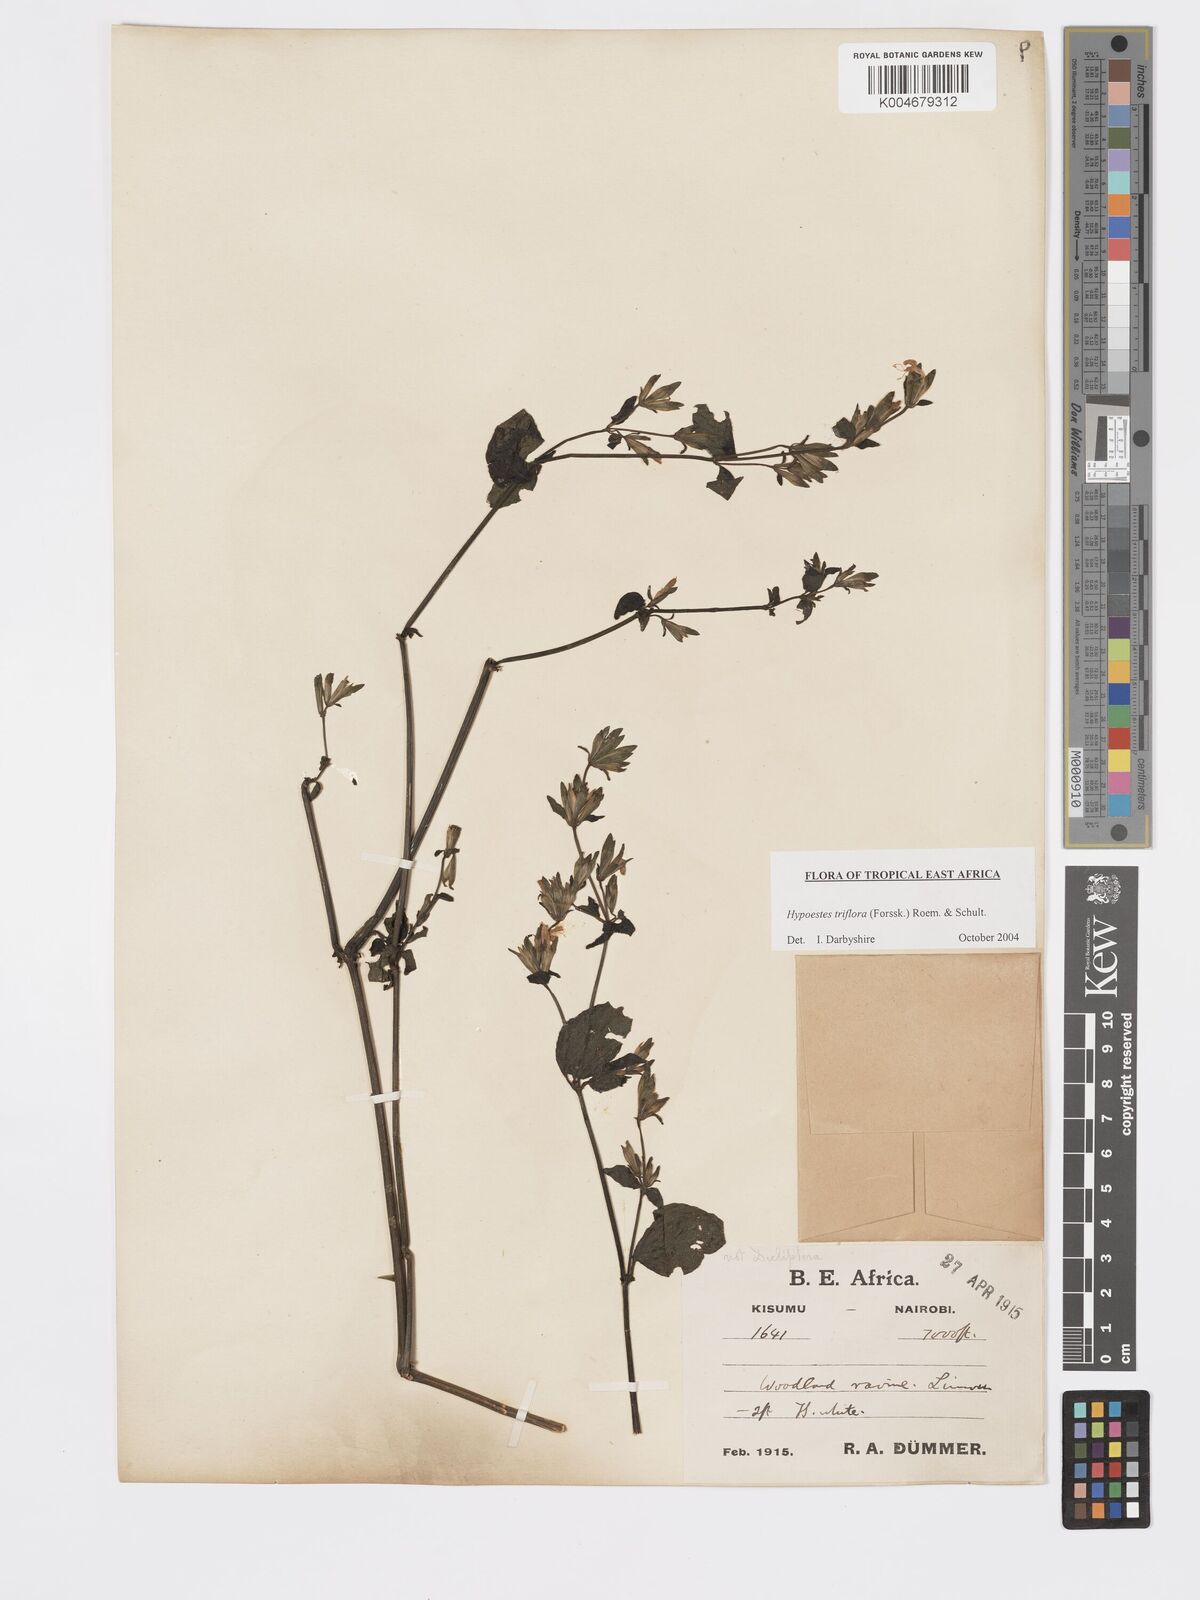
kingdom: Plantae
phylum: Tracheophyta
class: Magnoliopsida
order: Lamiales
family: Acanthaceae
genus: Hypoestes
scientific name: Hypoestes triflora
